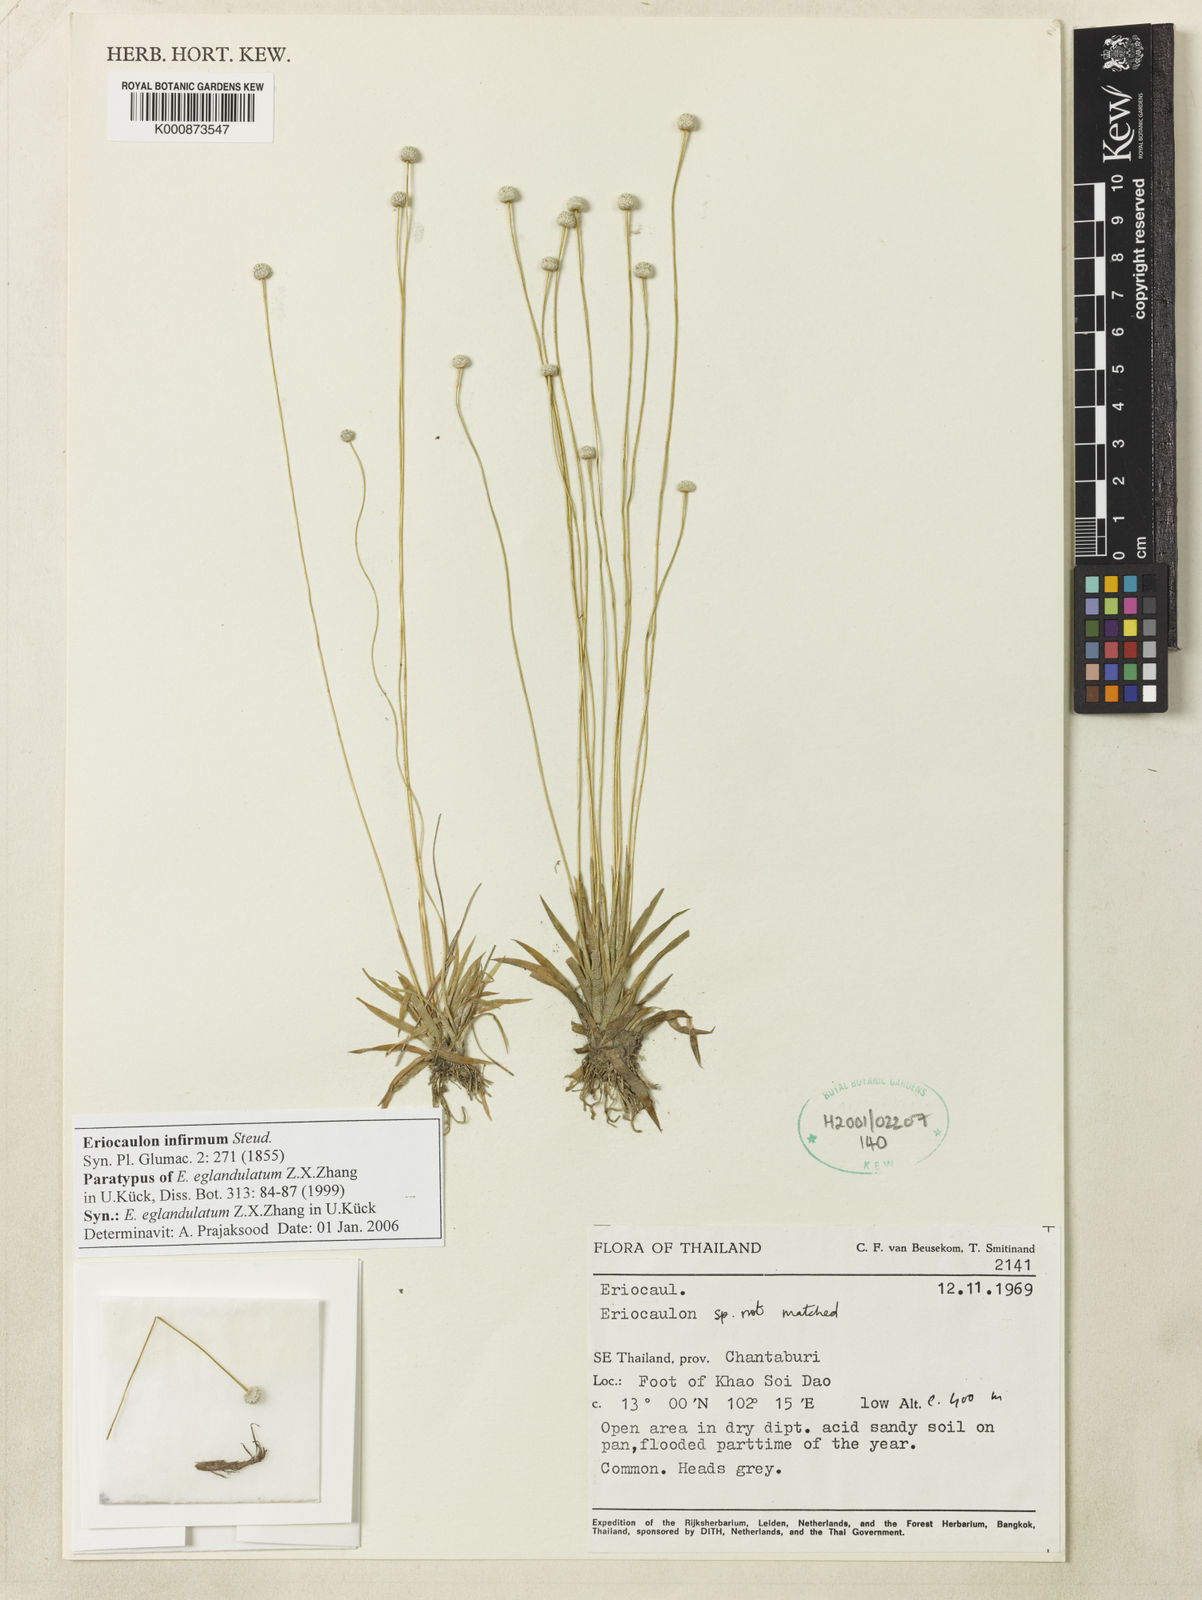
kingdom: Plantae
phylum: Tracheophyta
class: Liliopsida
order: Poales
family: Eriocaulaceae
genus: Eriocaulon
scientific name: Eriocaulon infirmum
